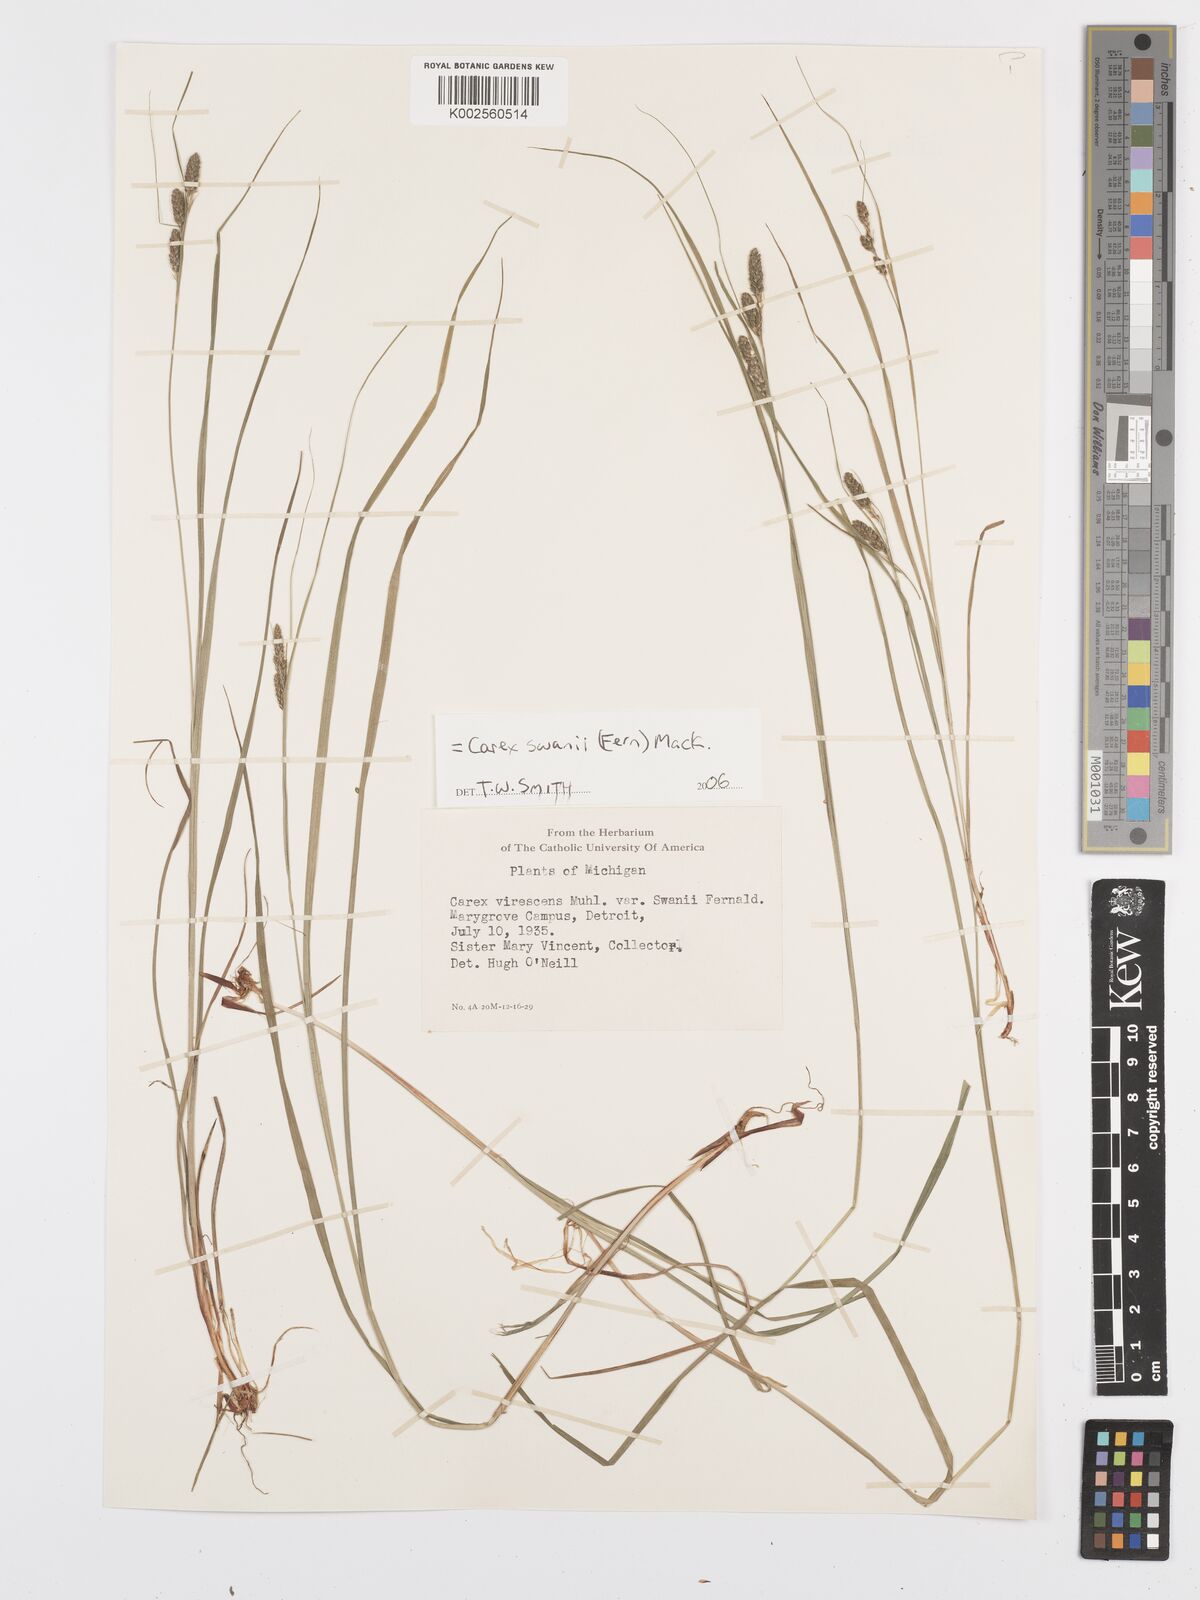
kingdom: Plantae
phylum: Tracheophyta
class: Liliopsida
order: Poales
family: Cyperaceae
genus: Carex
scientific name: Carex swanii
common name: Downy green sedge
